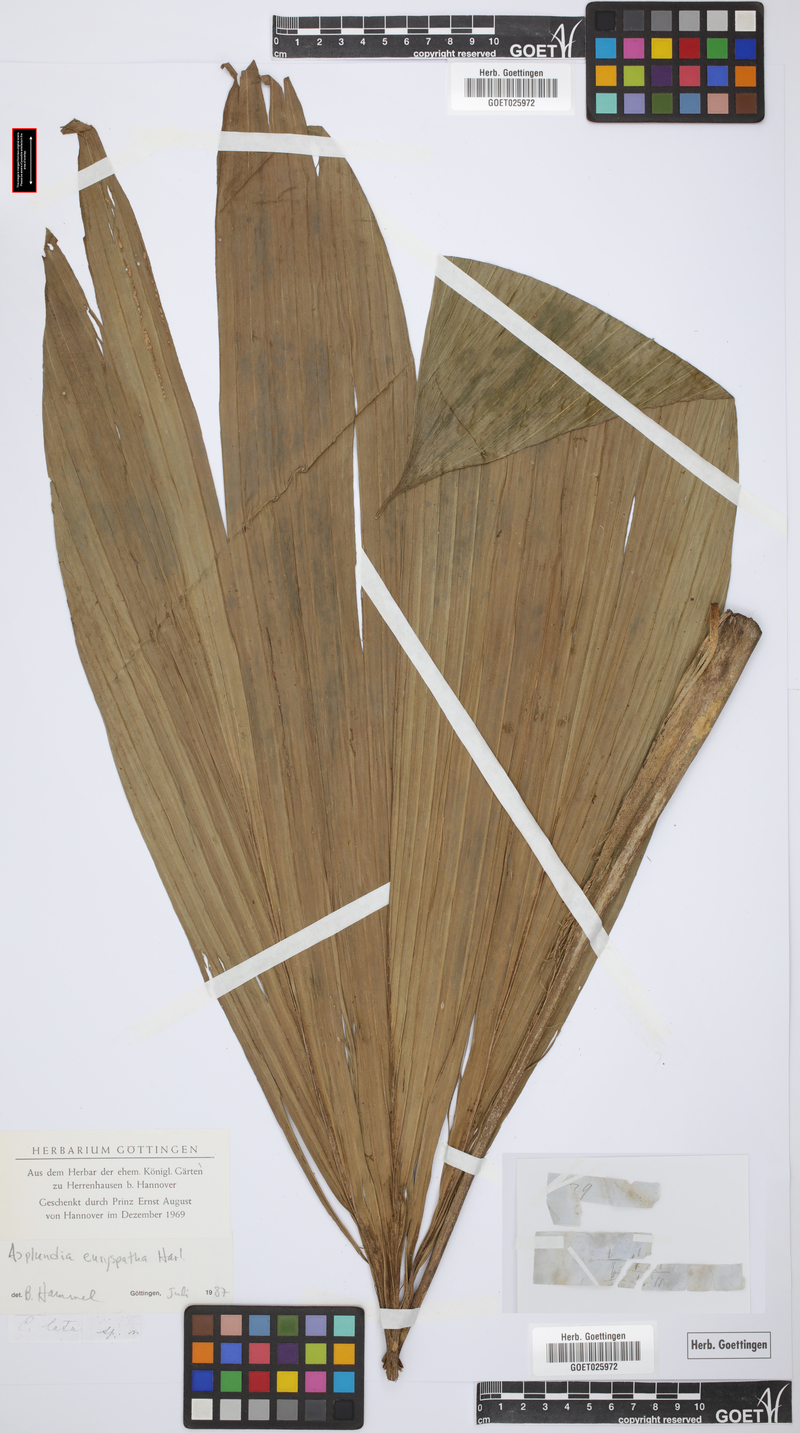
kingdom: Plantae
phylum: Tracheophyta
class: Liliopsida
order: Pandanales
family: Cyclanthaceae
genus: Asplundia
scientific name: Asplundia euryspatha
